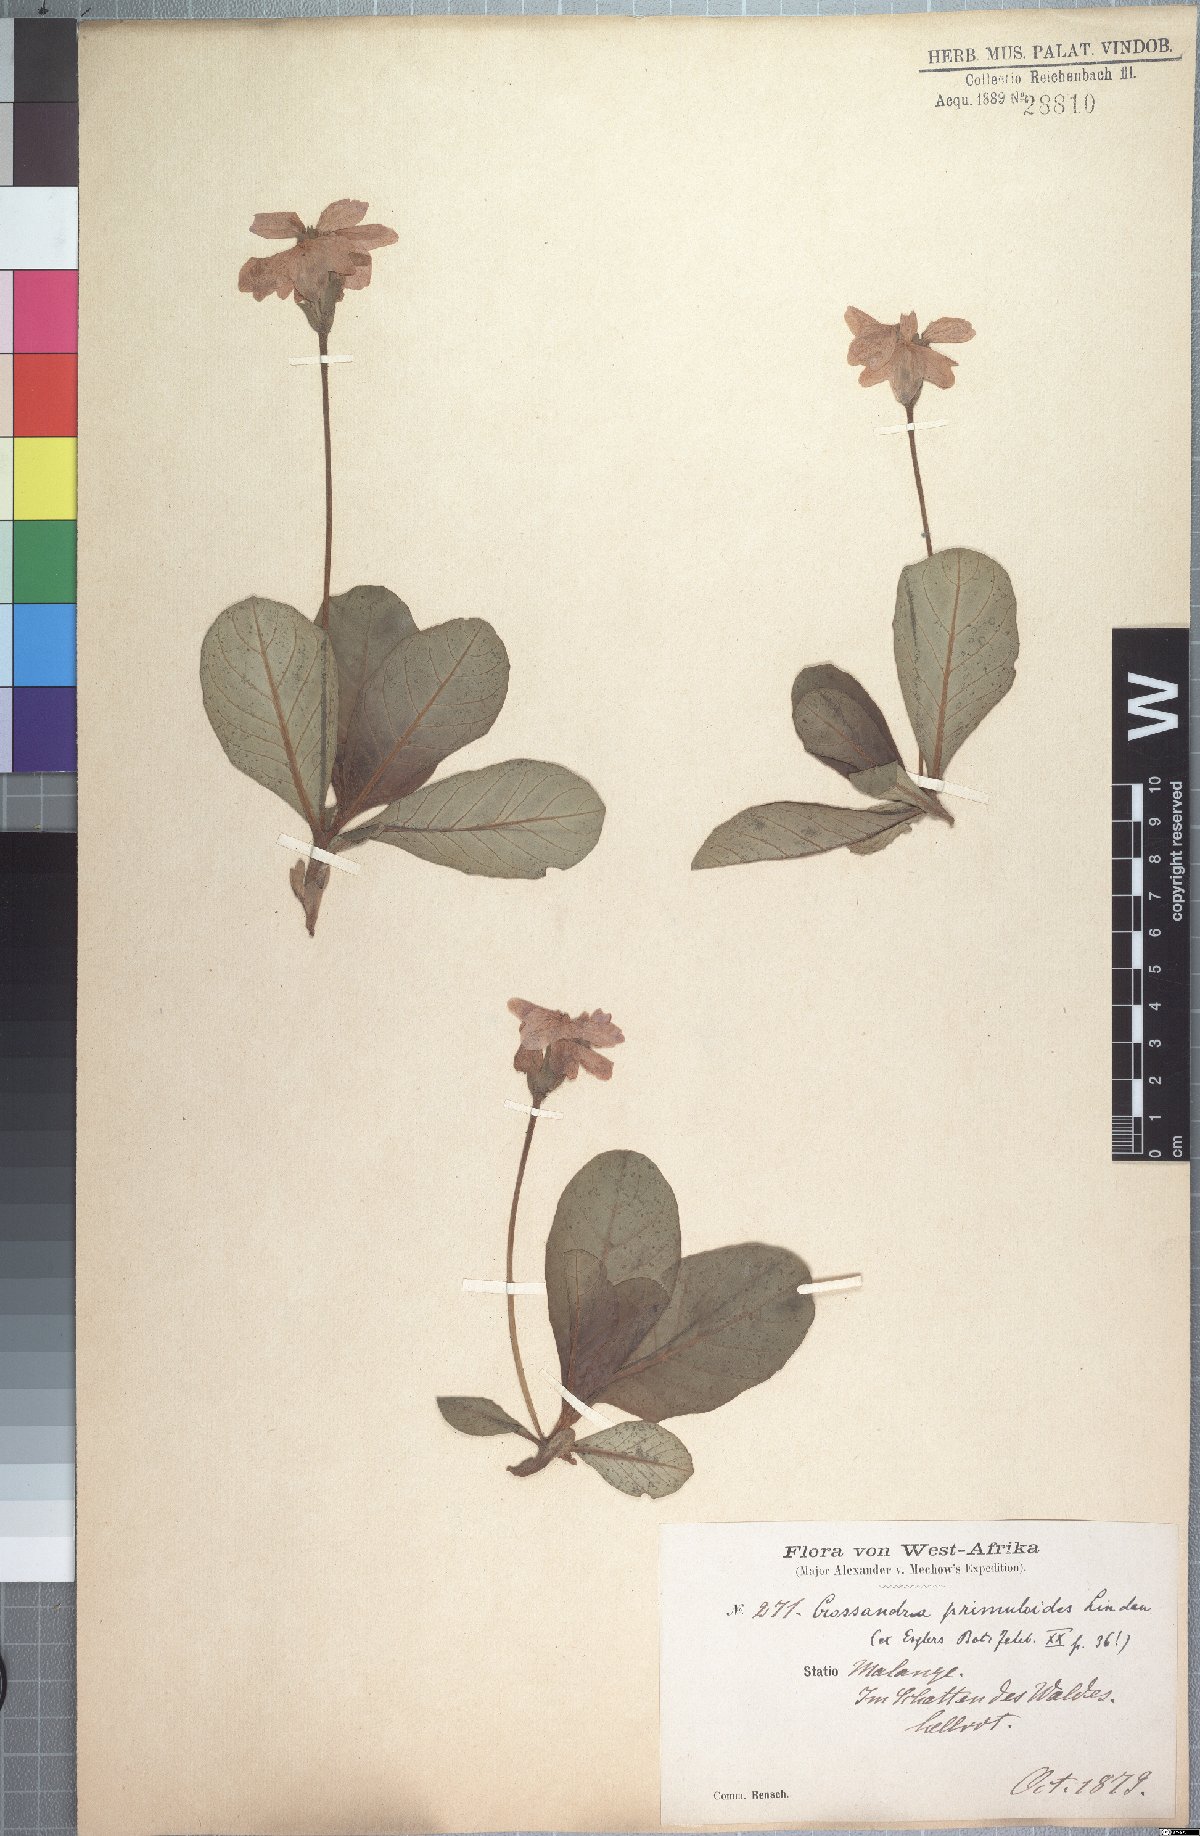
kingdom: Plantae
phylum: Tracheophyta
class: Magnoliopsida
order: Lamiales
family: Acanthaceae
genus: Crossandra
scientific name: Crossandra primuloides
